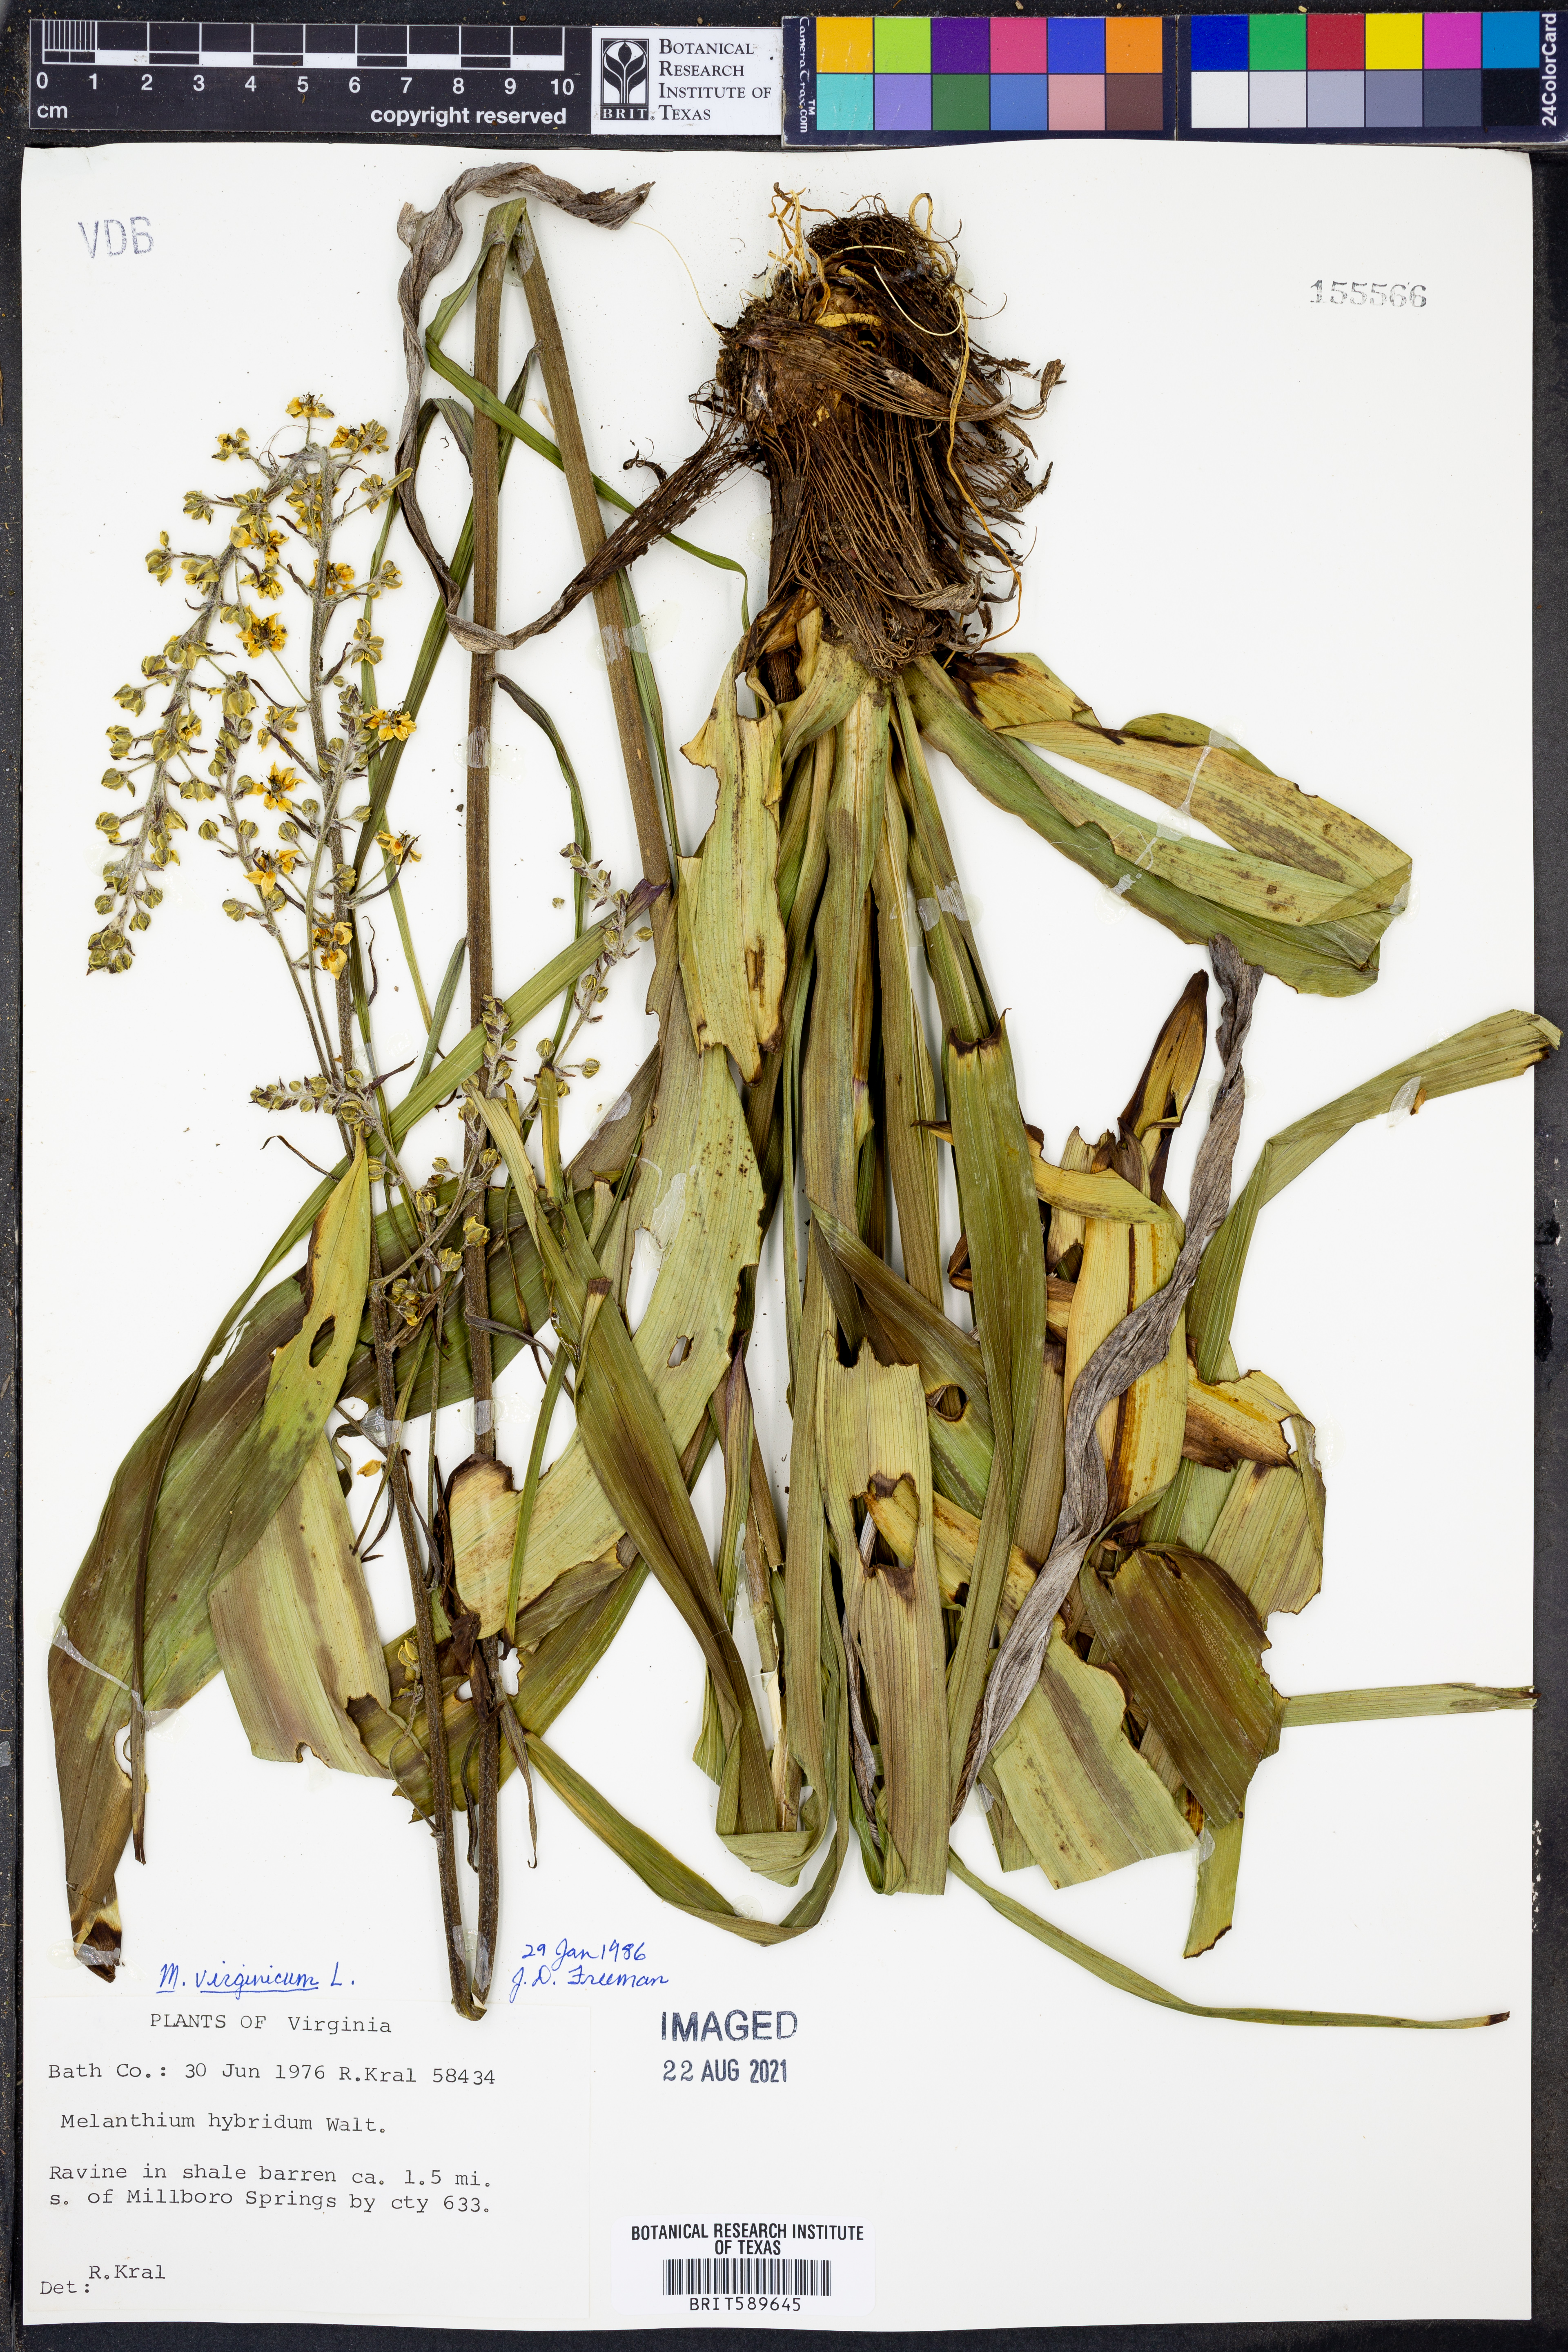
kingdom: Plantae
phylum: Tracheophyta
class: Liliopsida
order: Liliales
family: Melanthiaceae
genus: Melanthium
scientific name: Melanthium hybridum
